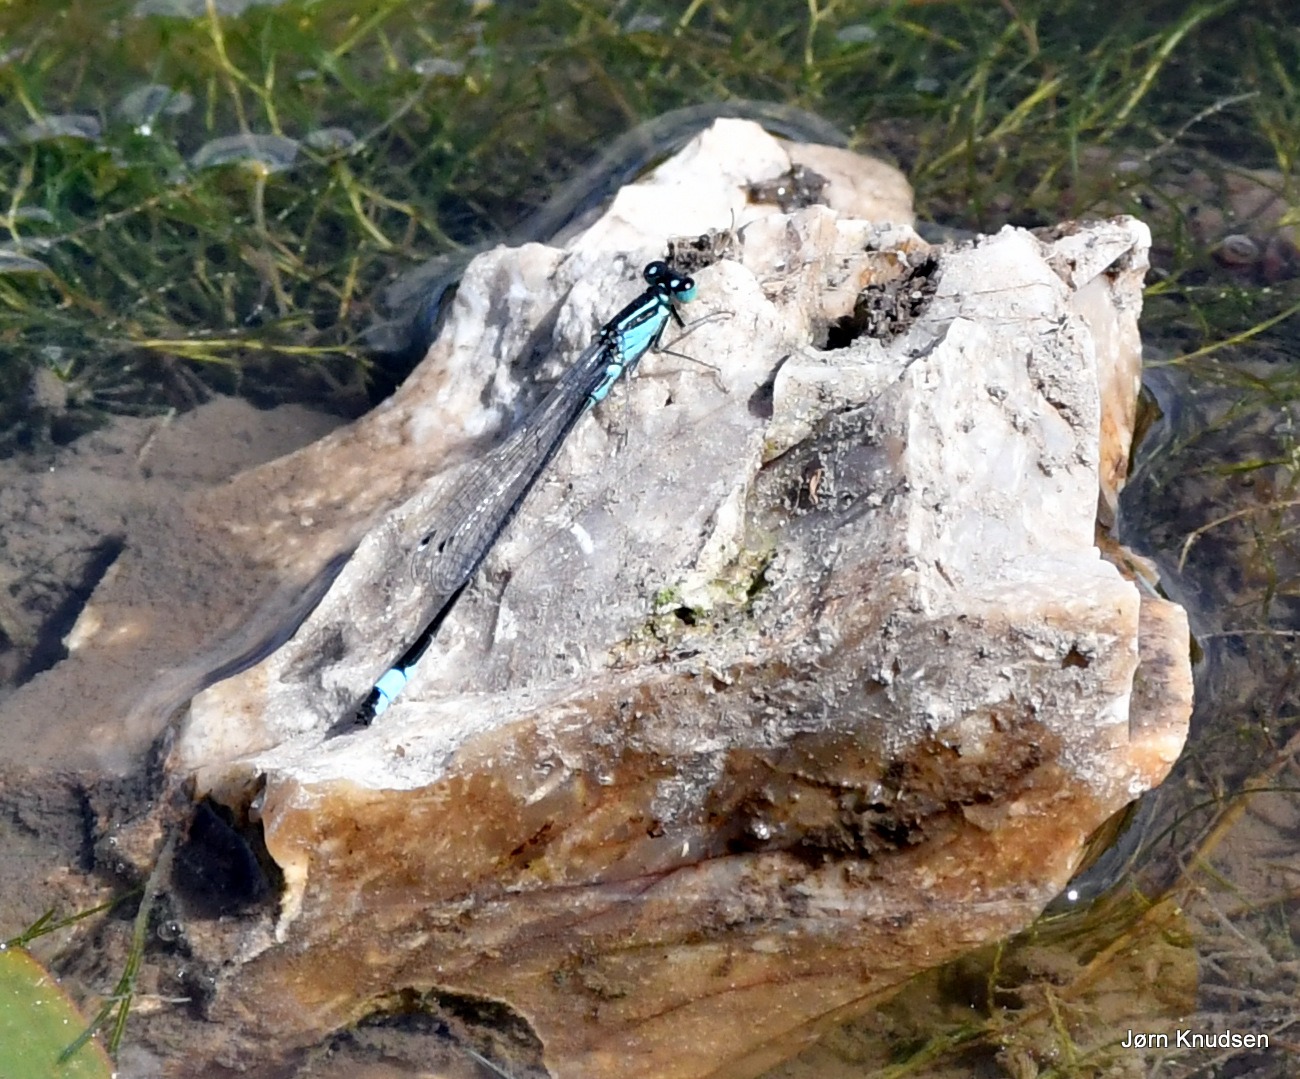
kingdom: Animalia
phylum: Arthropoda
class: Insecta
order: Odonata
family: Coenagrionidae
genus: Ischnura
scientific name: Ischnura elegans
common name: Stor farvevandnymfe
